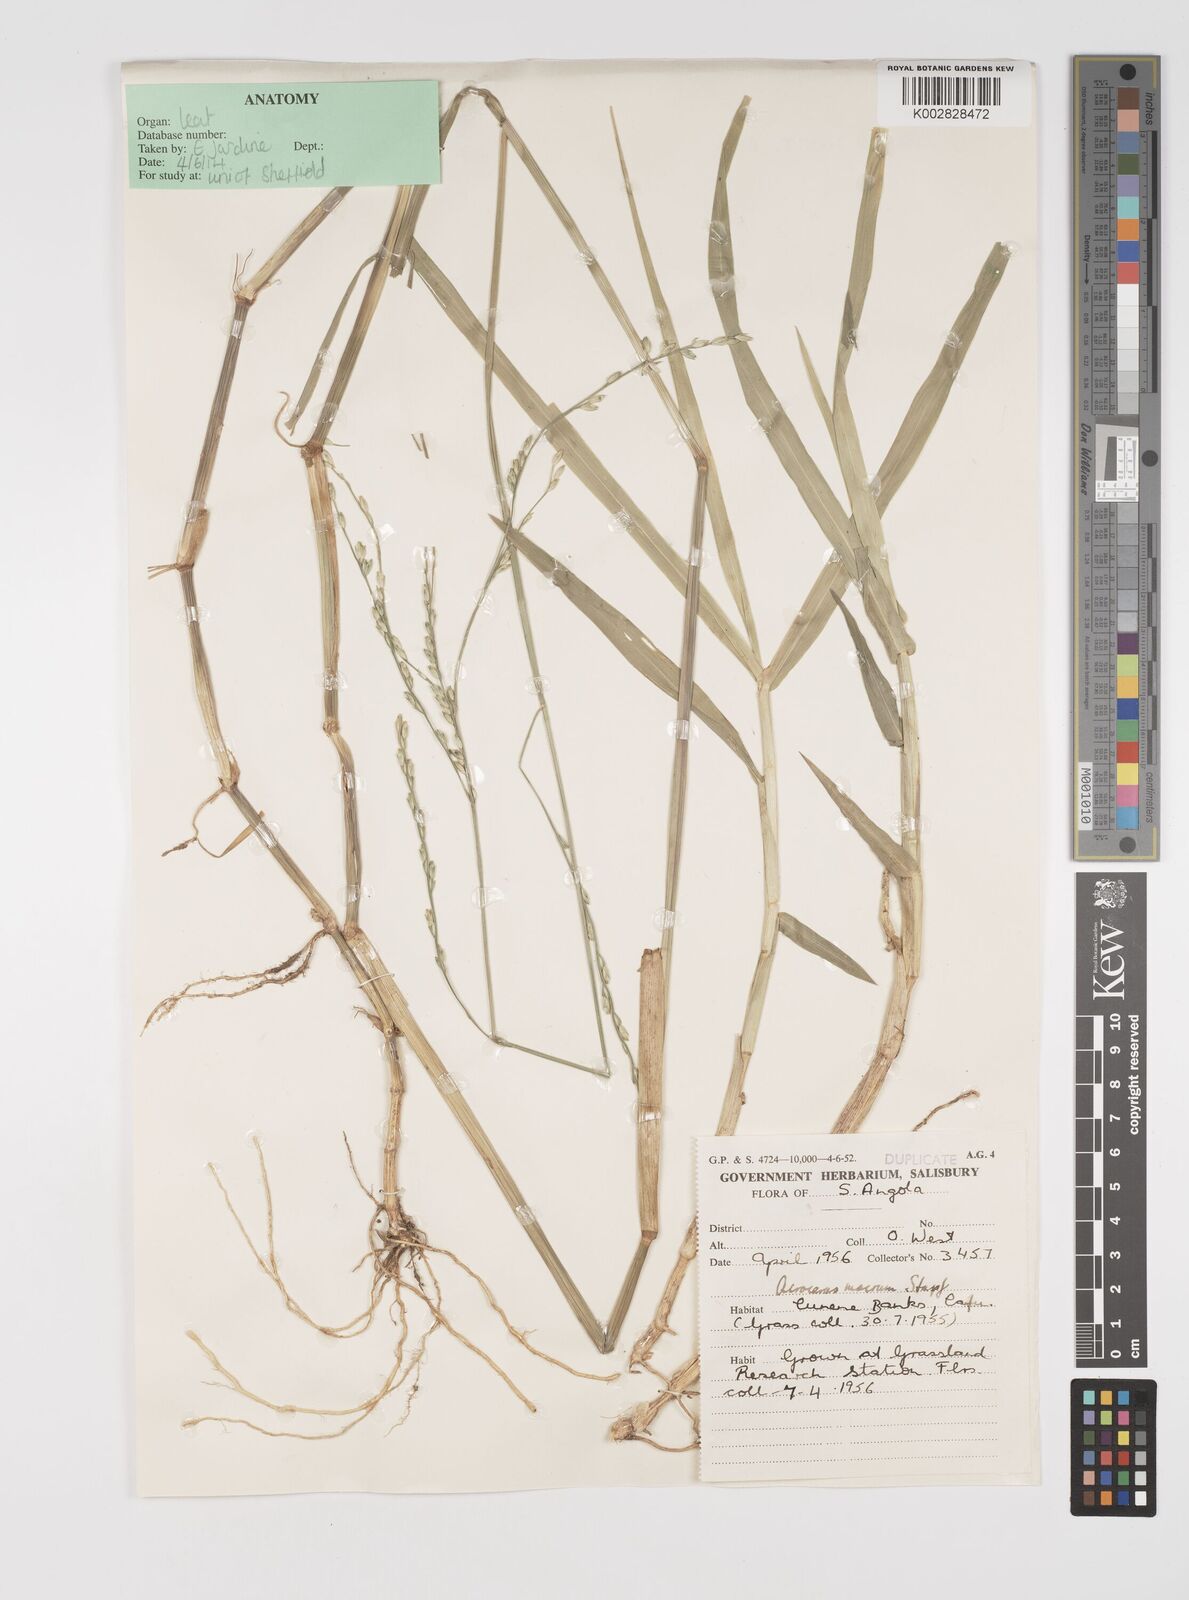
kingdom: Plantae
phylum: Tracheophyta
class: Liliopsida
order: Poales
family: Poaceae
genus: Acroceras
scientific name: Acroceras macrum
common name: Nyl grass
